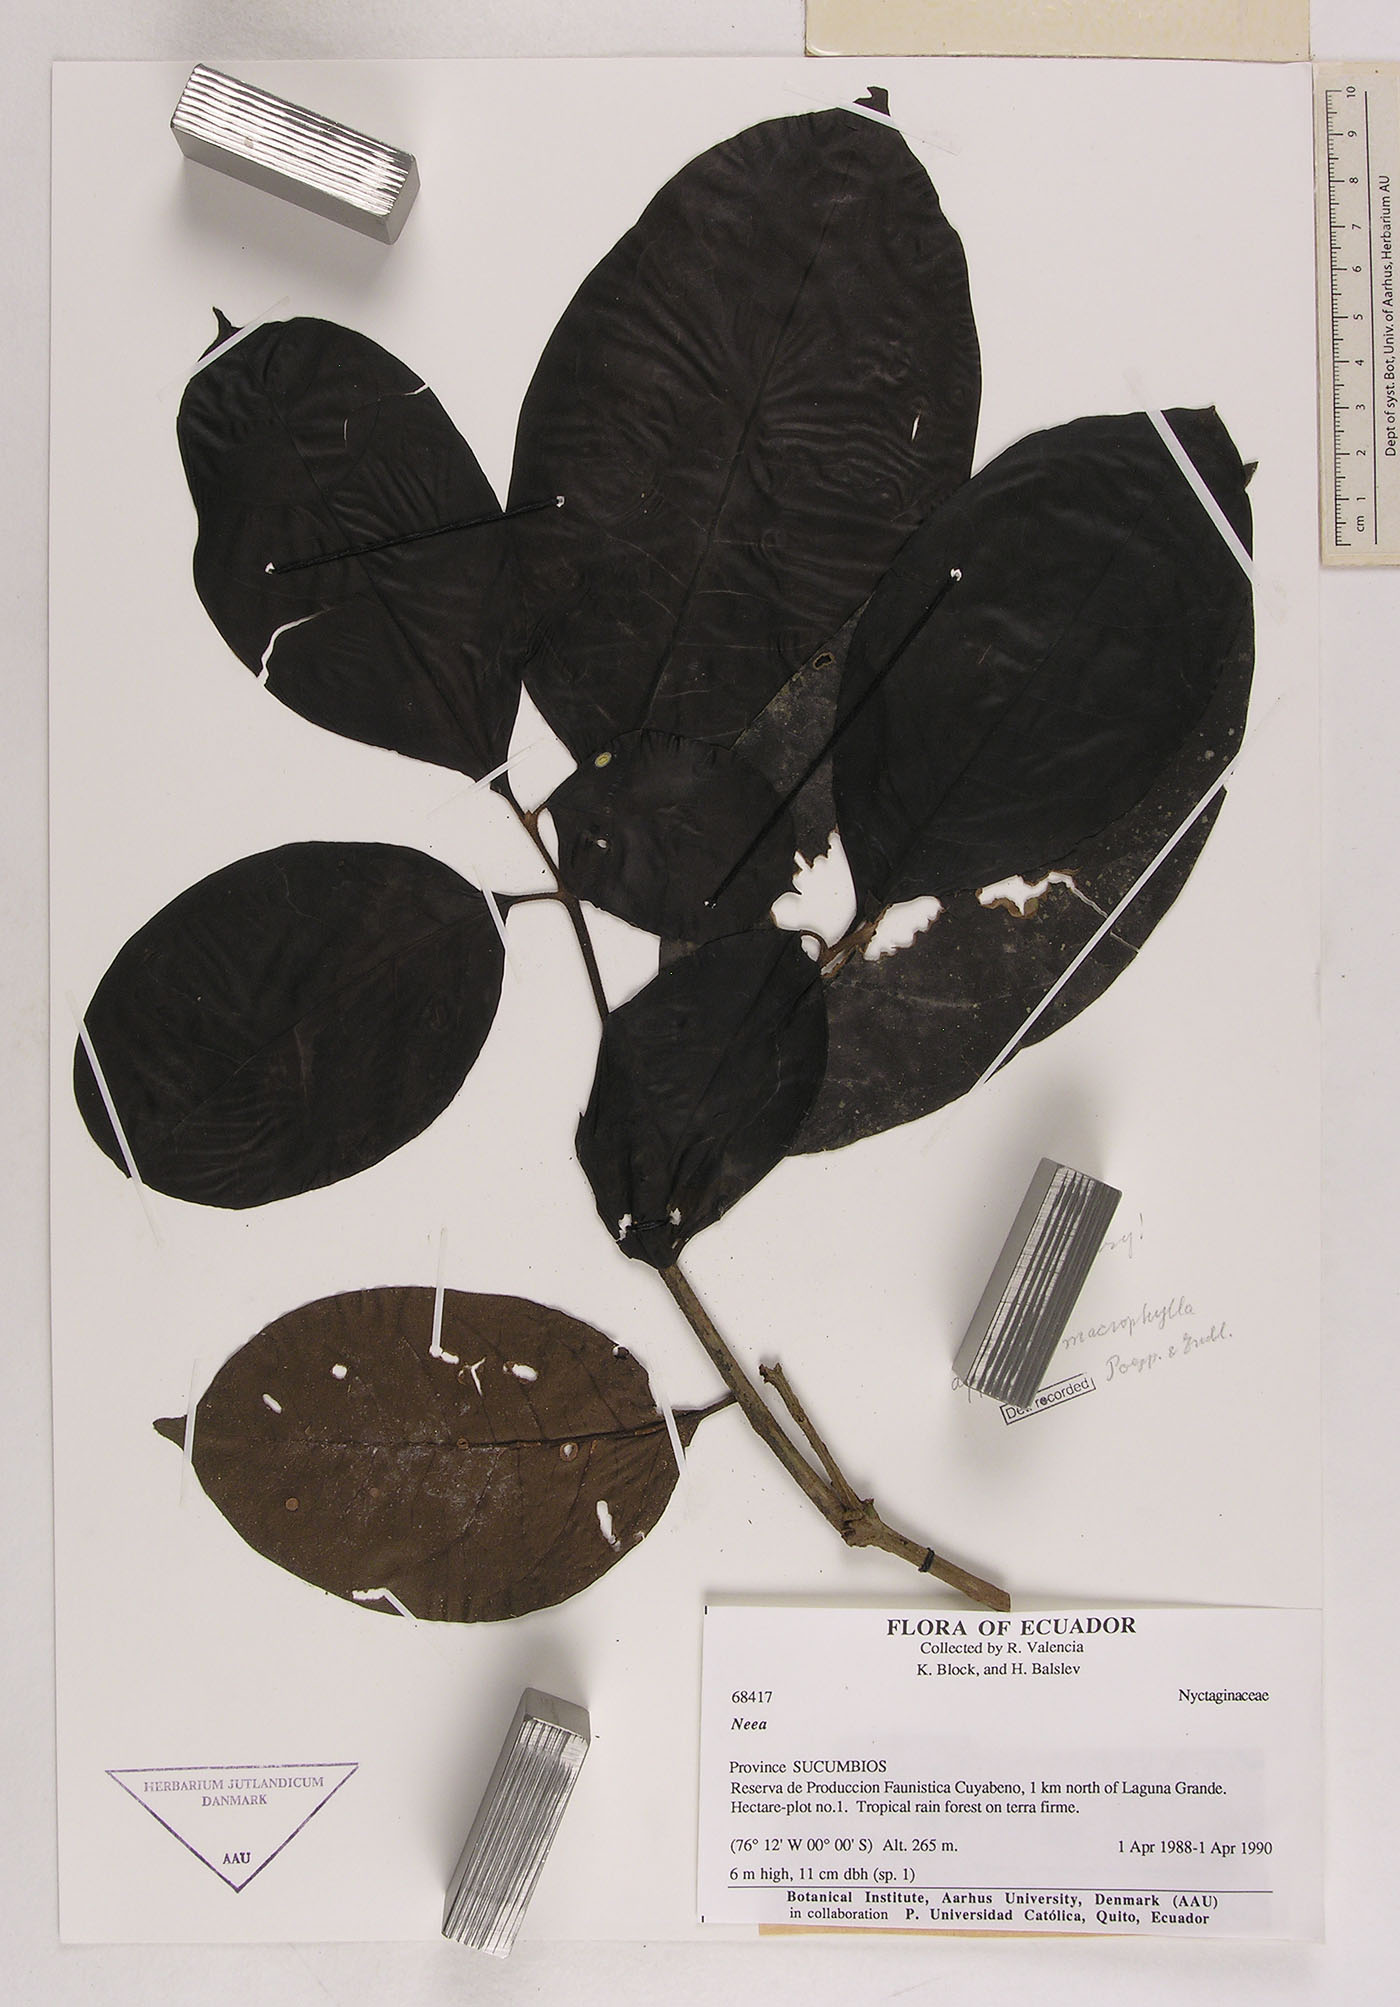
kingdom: Plantae
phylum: Tracheophyta
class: Magnoliopsida
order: Caryophyllales
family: Nyctaginaceae
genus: Neea
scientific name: Neea macrophylla
